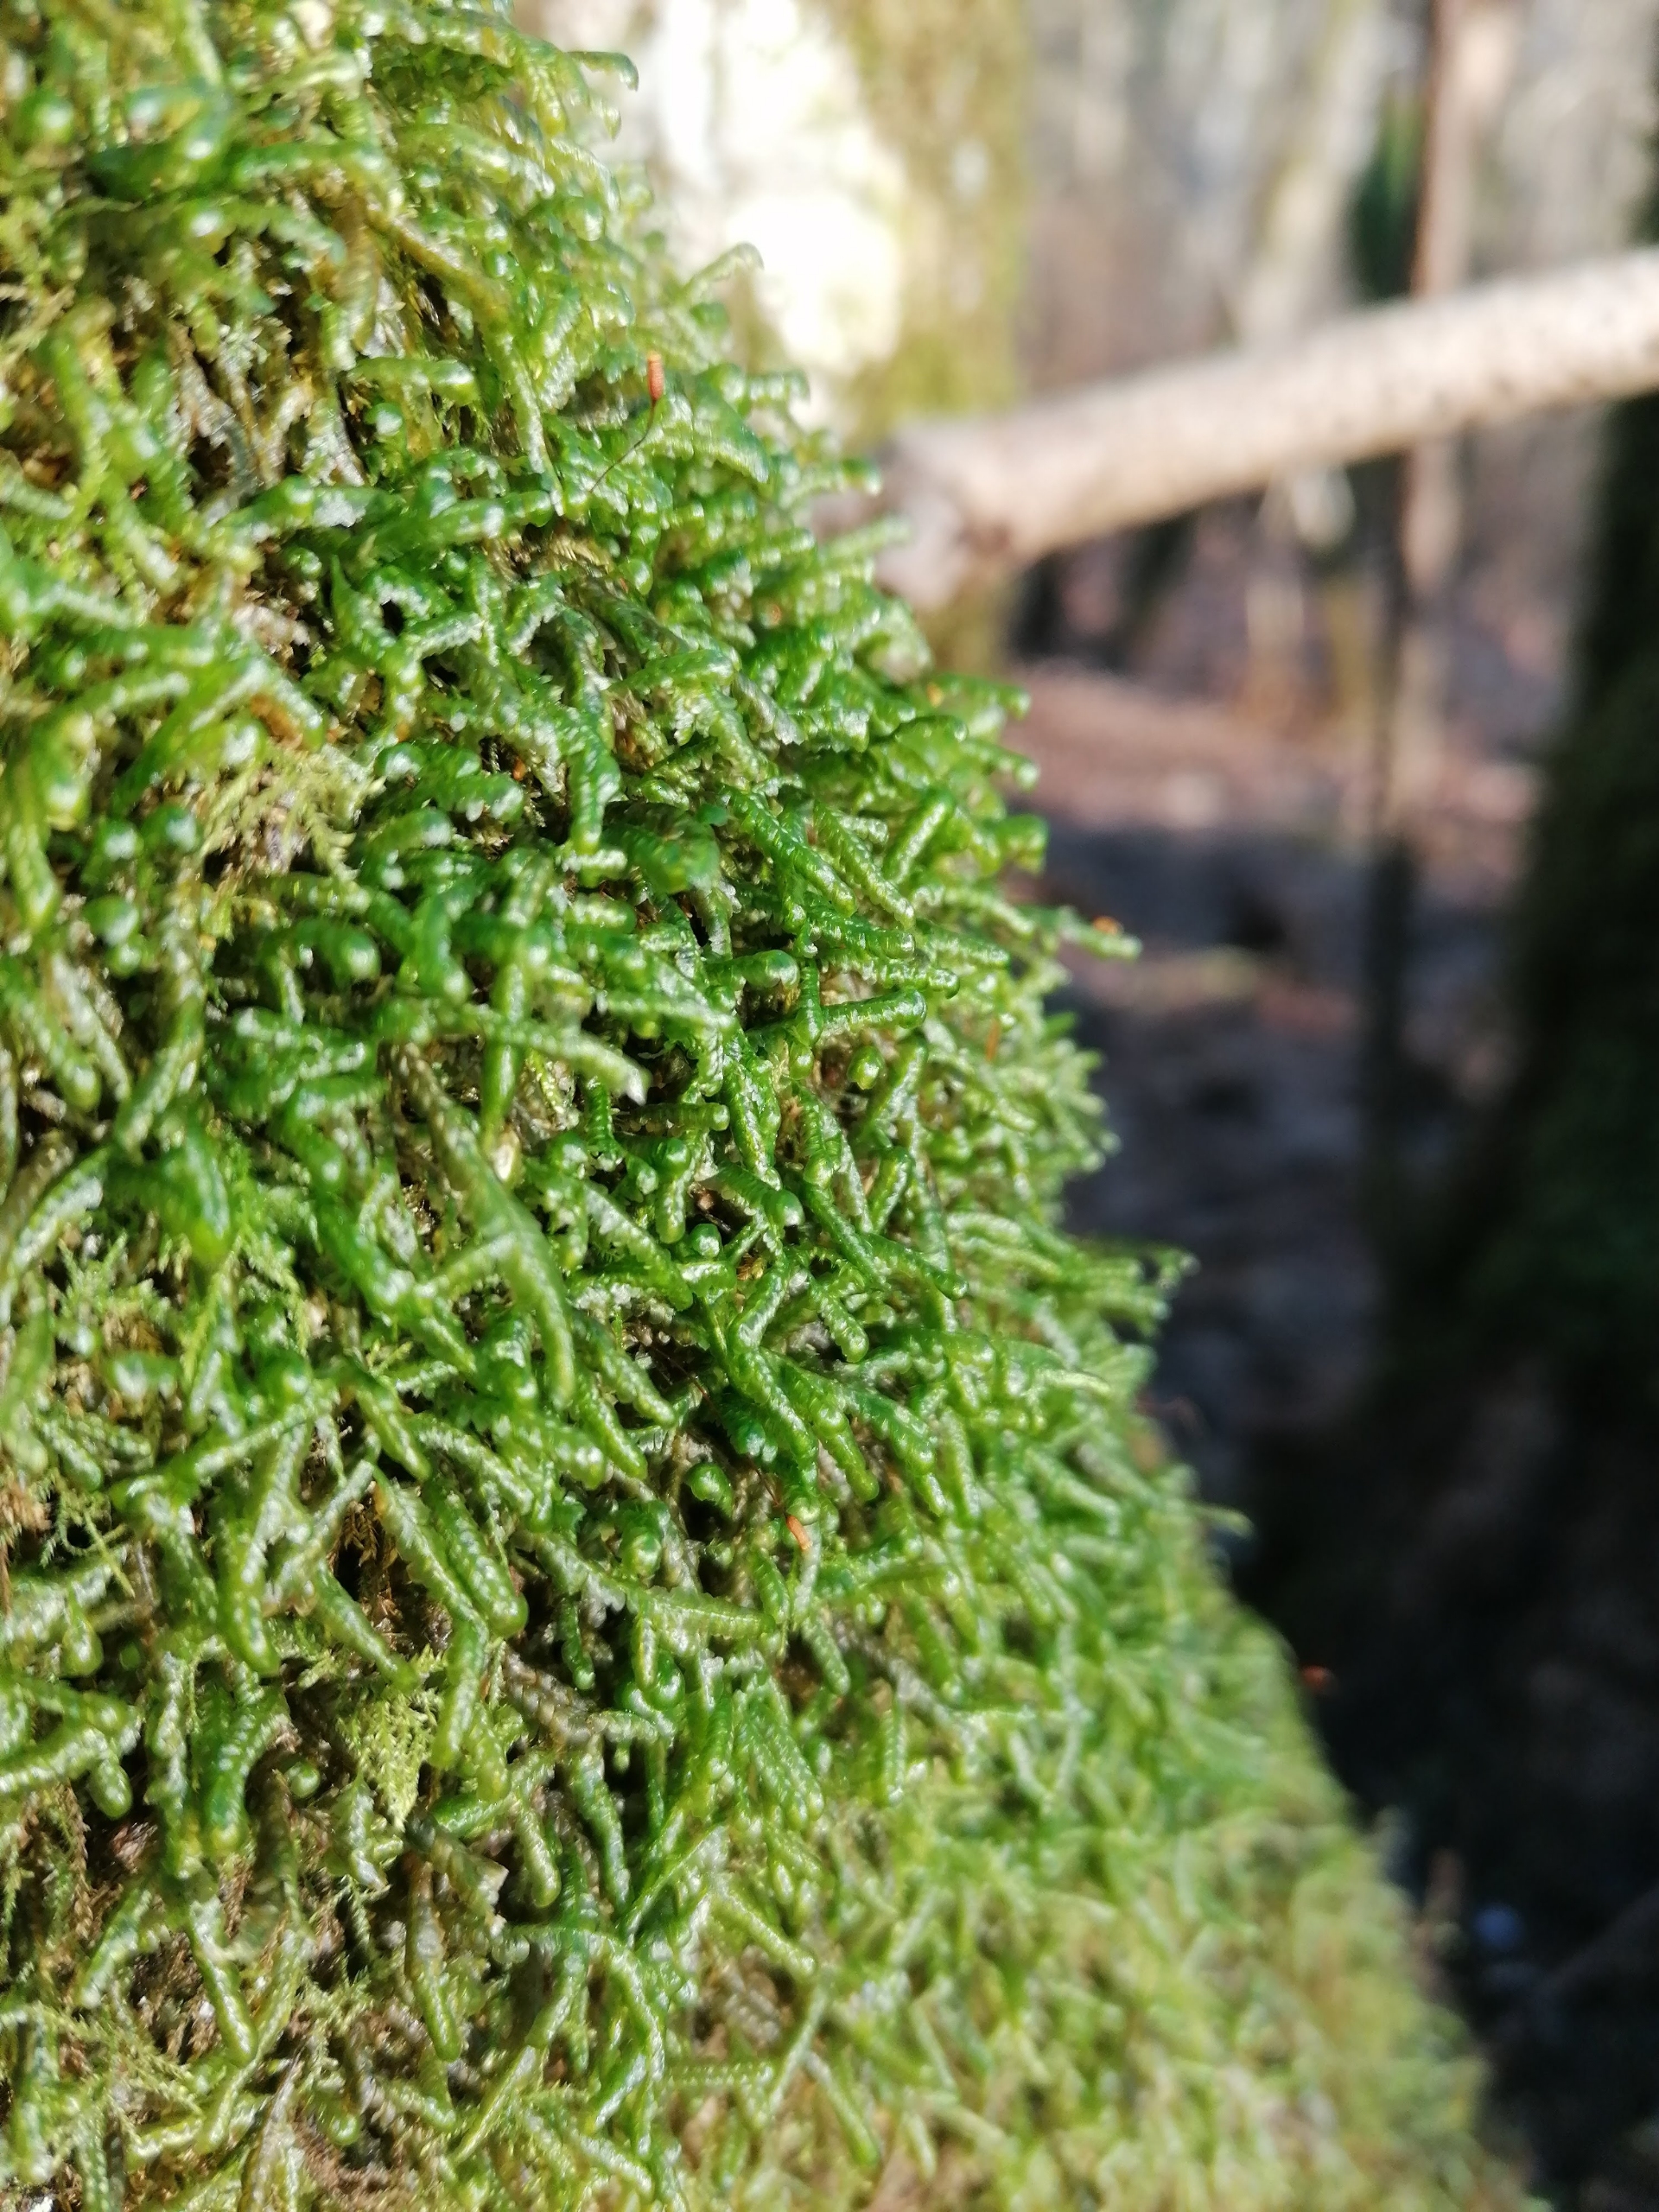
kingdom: Plantae
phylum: Bryophyta
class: Bryopsida
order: Hypnales
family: Neckeraceae
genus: Homalia
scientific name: Homalia trichomanoides
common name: Skov-tungemos
